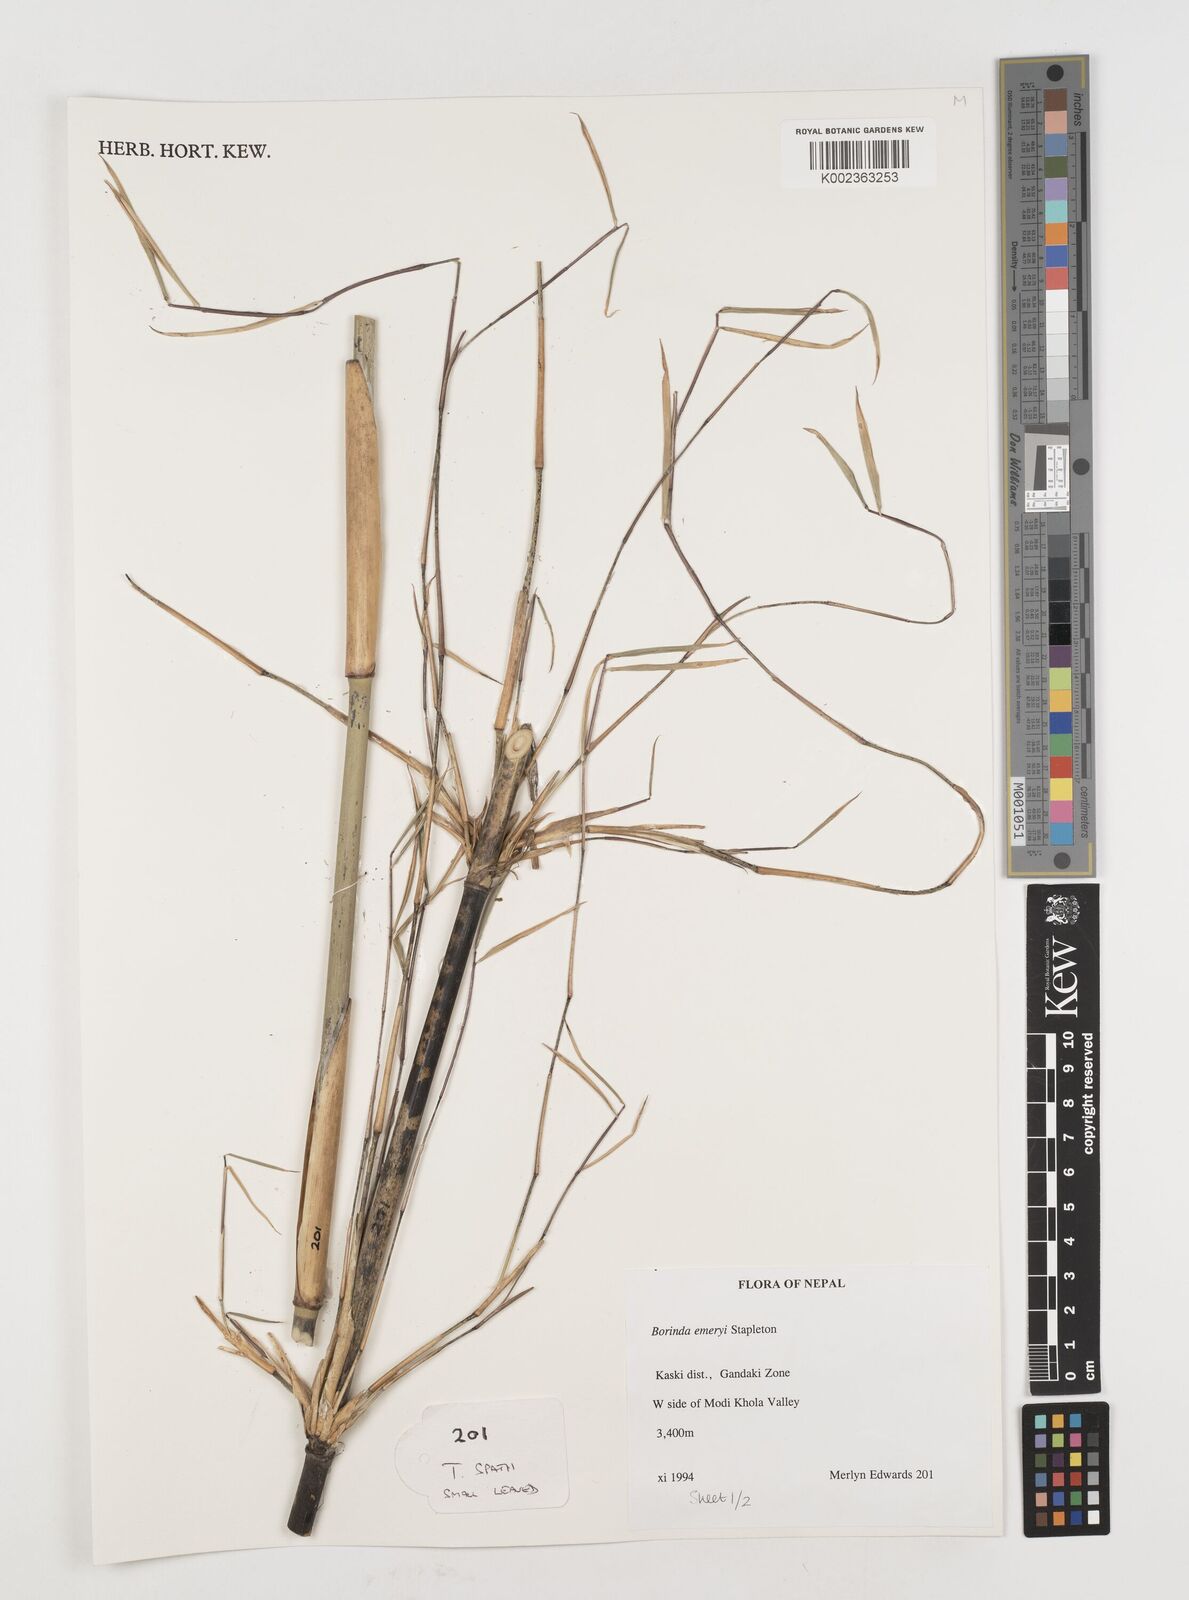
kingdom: Plantae
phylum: Tracheophyta
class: Liliopsida
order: Poales
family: Poaceae
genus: Fargesia
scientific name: Fargesia
